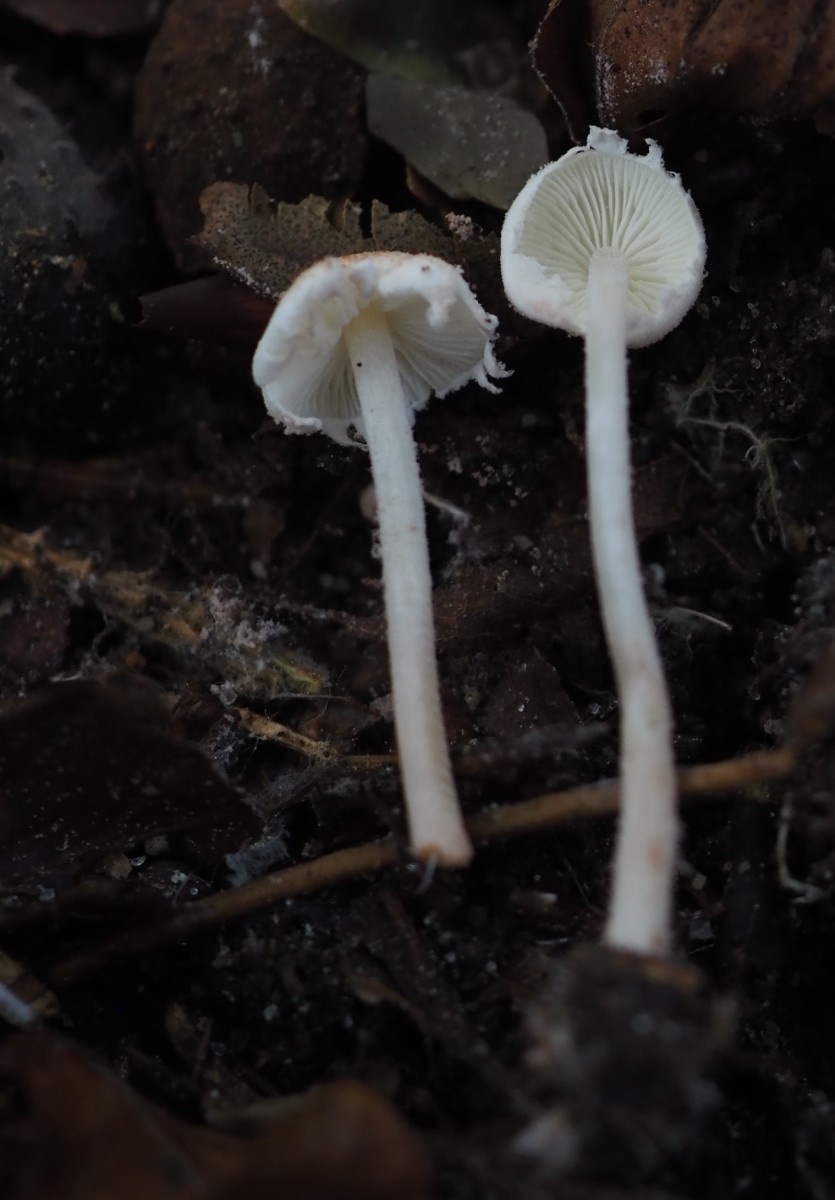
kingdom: Fungi
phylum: Basidiomycota
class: Agaricomycetes
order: Agaricales
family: Agaricaceae
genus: Cystolepiota
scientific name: Cystolepiota seminuda
